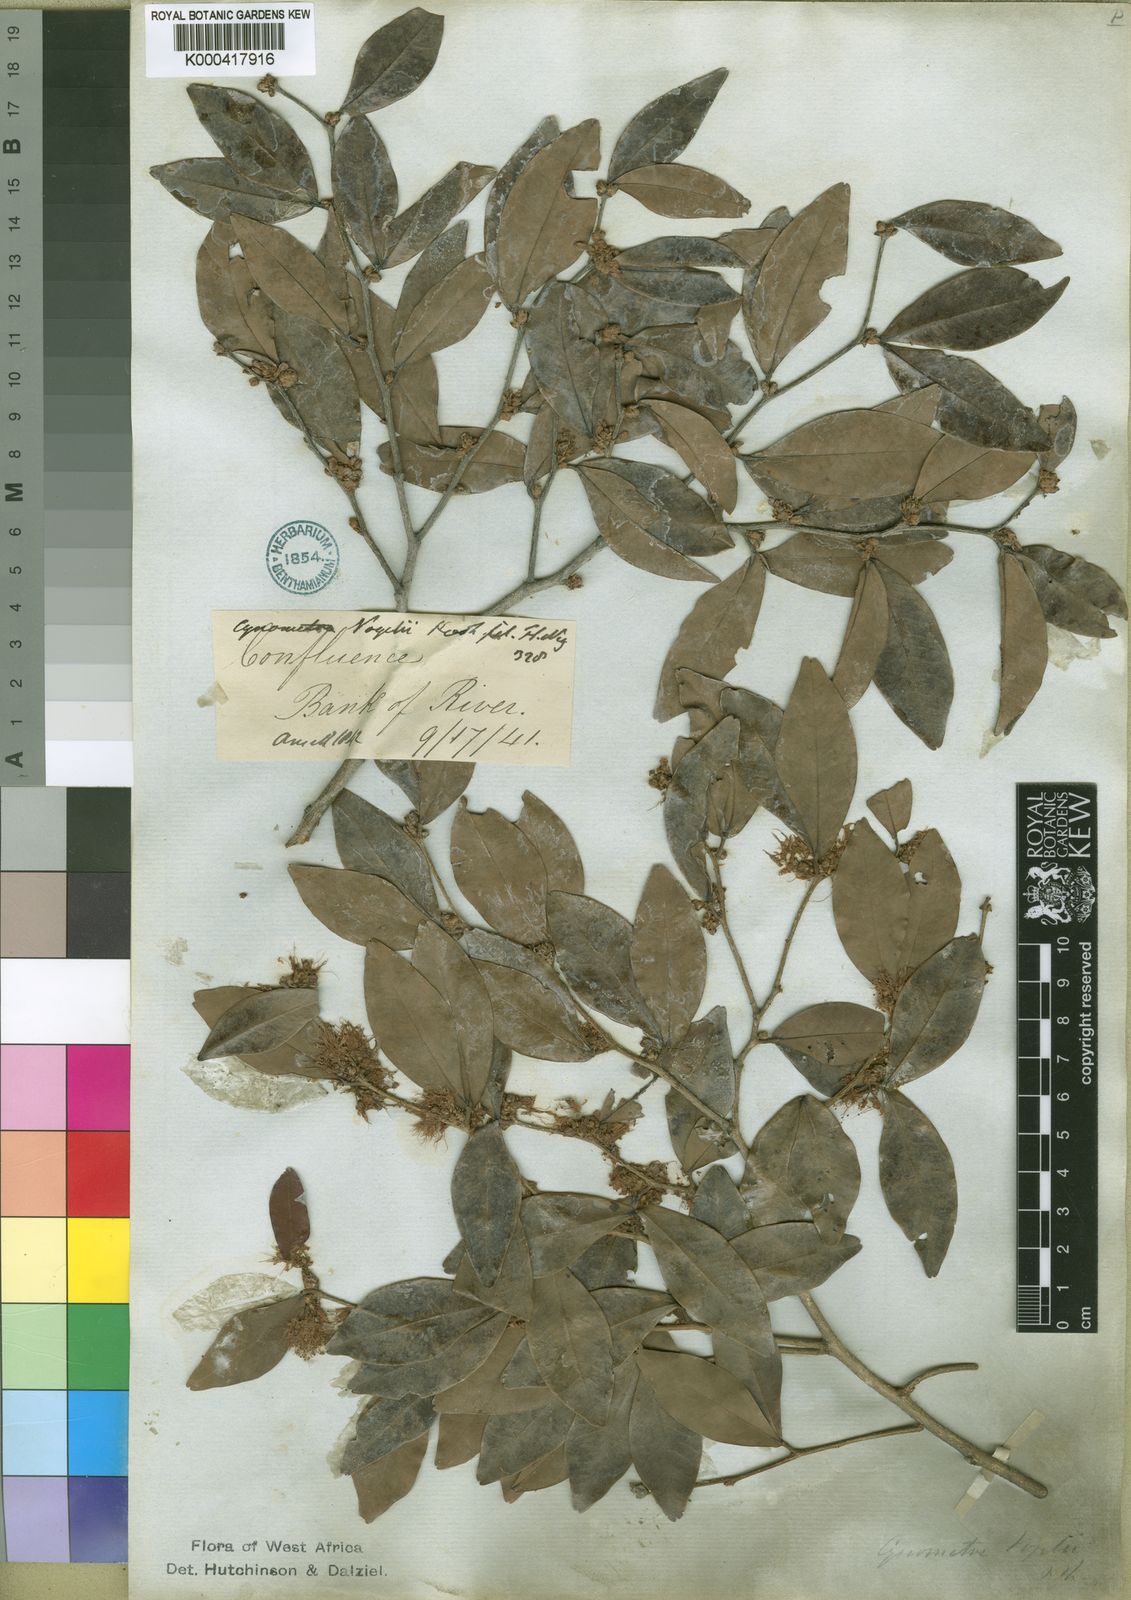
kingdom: Plantae
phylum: Tracheophyta
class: Magnoliopsida
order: Fabales
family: Fabaceae
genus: Cynometra
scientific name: Cynometra vogelii
